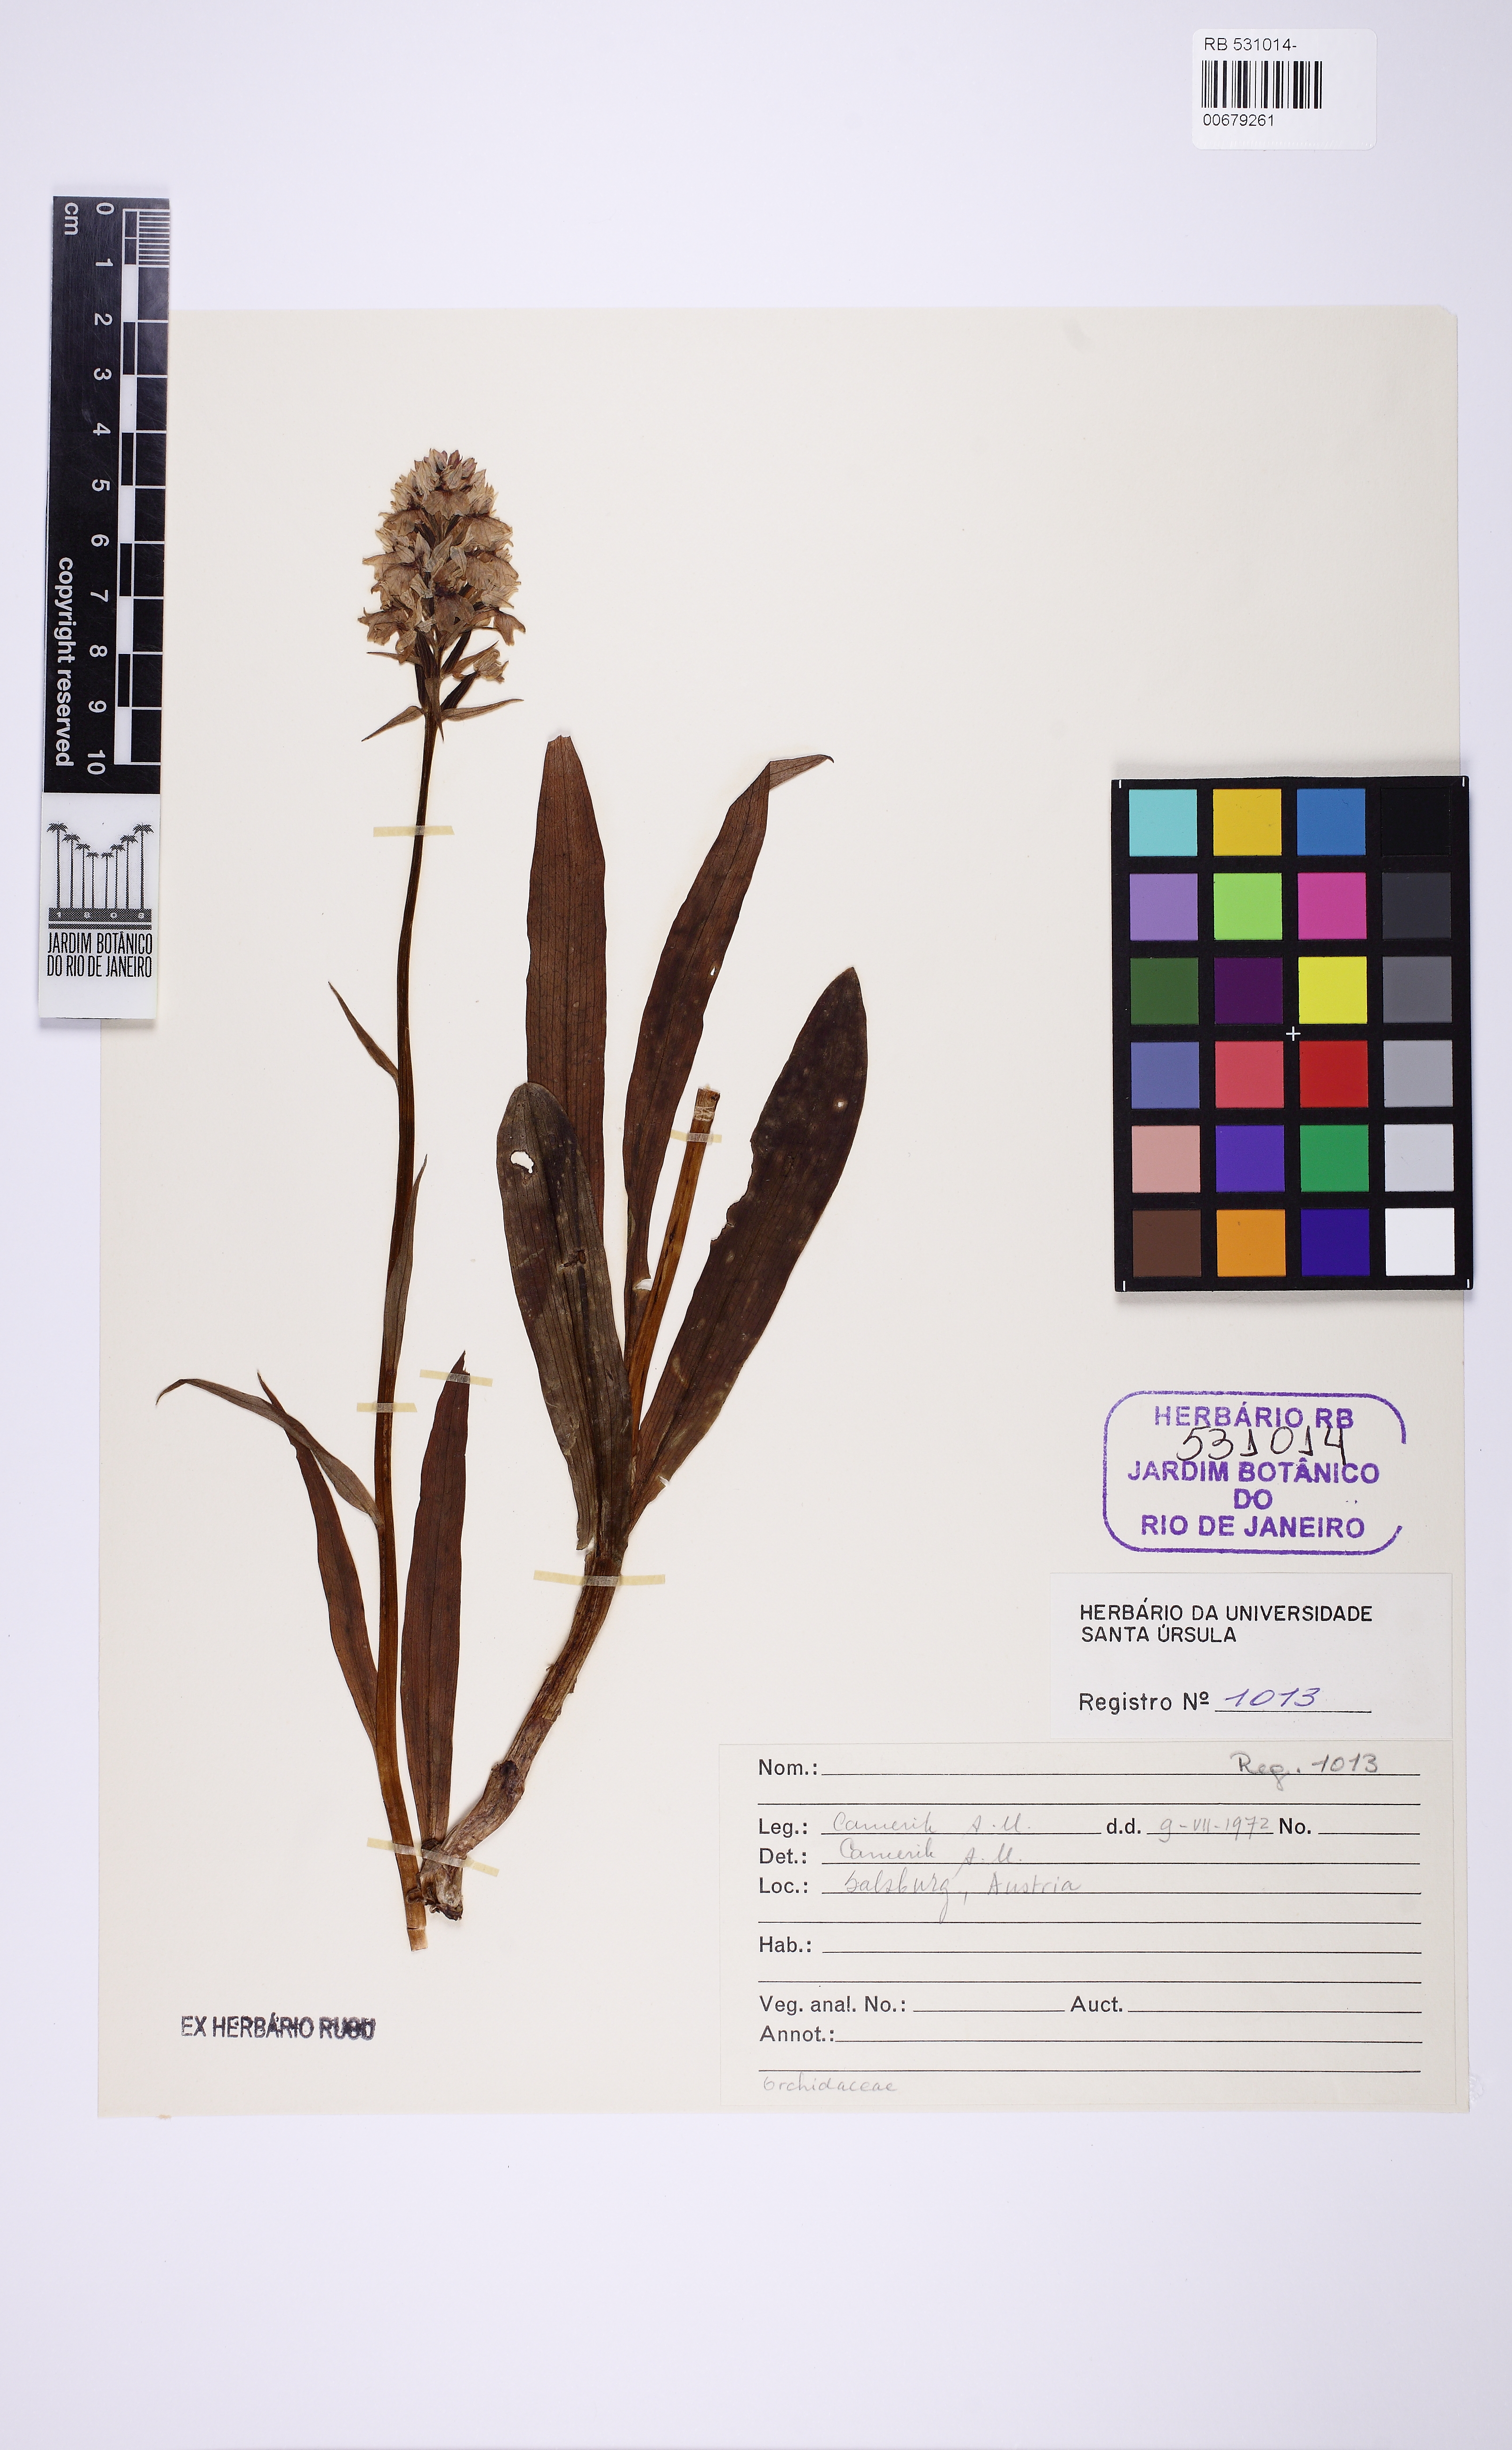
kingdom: Plantae
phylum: Tracheophyta
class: Liliopsida
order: Asparagales
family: Orchidaceae
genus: Orchis
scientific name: Orchis mascula
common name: Early-purple orchid
